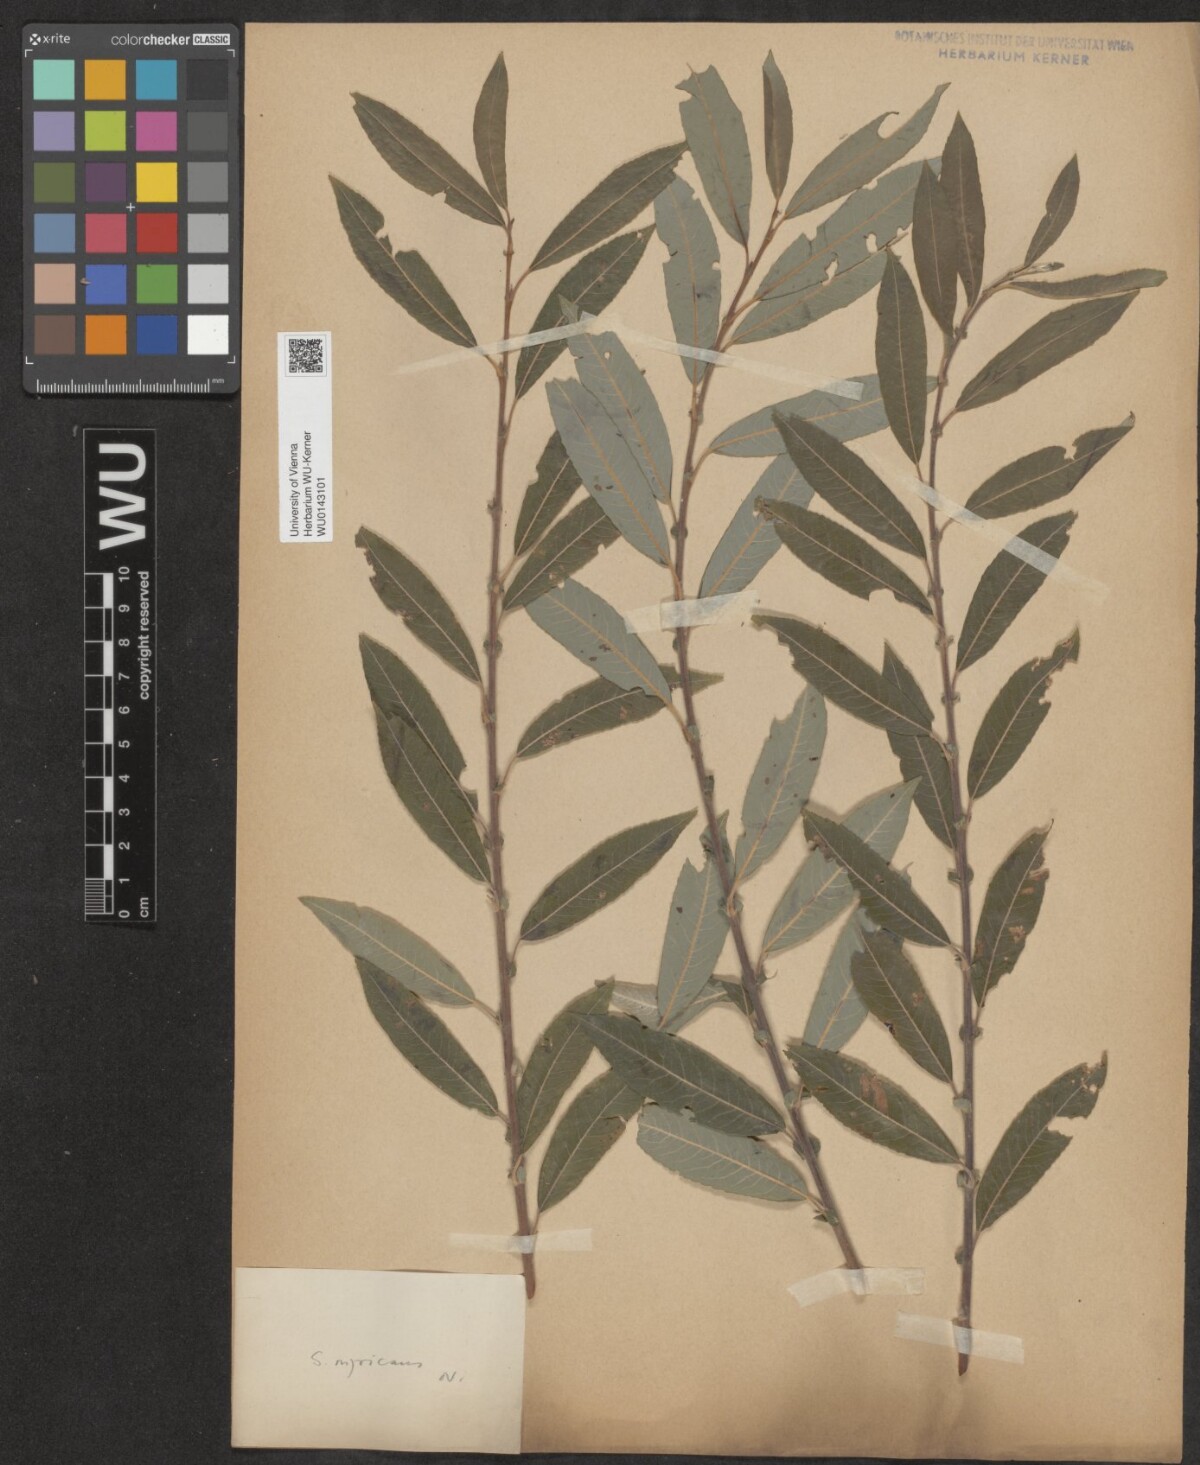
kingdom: Plantae
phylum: Tracheophyta
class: Magnoliopsida
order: Malpighiales
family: Salicaceae
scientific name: Salicaceae
